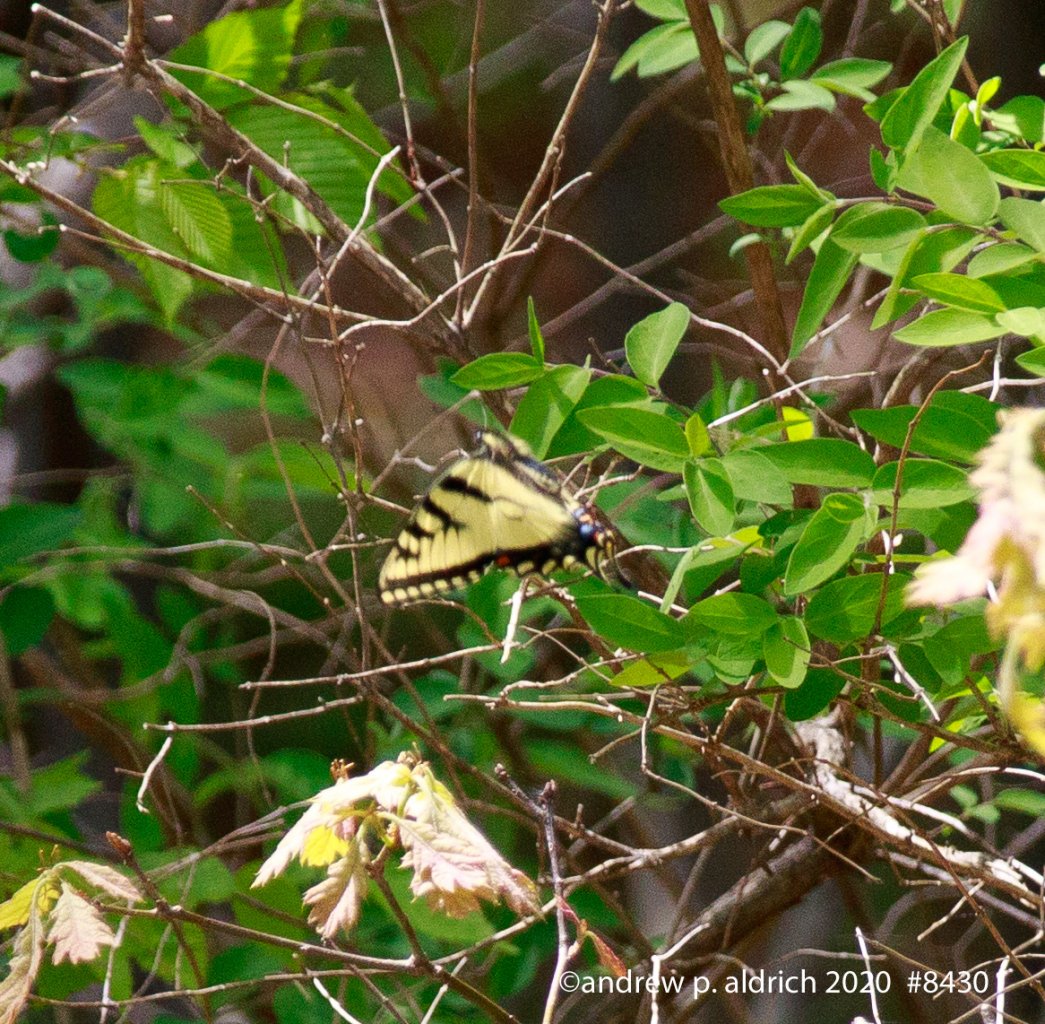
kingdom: Animalia
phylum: Arthropoda
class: Insecta
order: Lepidoptera
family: Papilionidae
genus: Papilio
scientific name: Papilio
